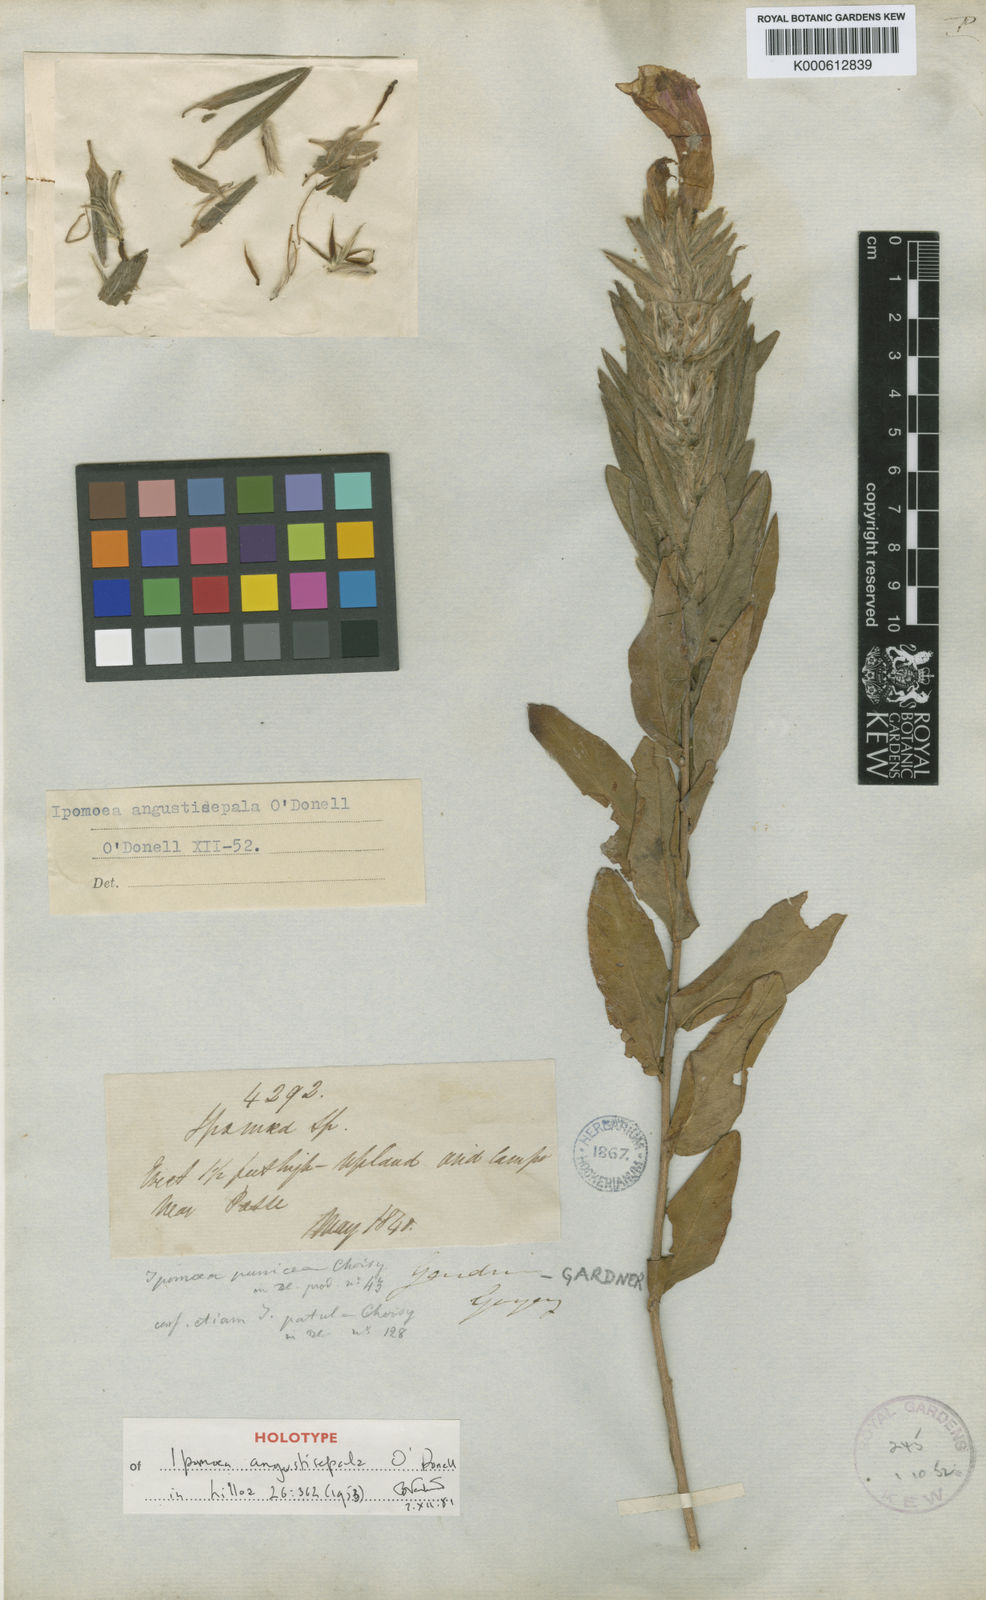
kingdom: Plantae
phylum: Tracheophyta
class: Magnoliopsida
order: Solanales
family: Convolvulaceae
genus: Ipomoea
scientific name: Ipomoea pohlii
